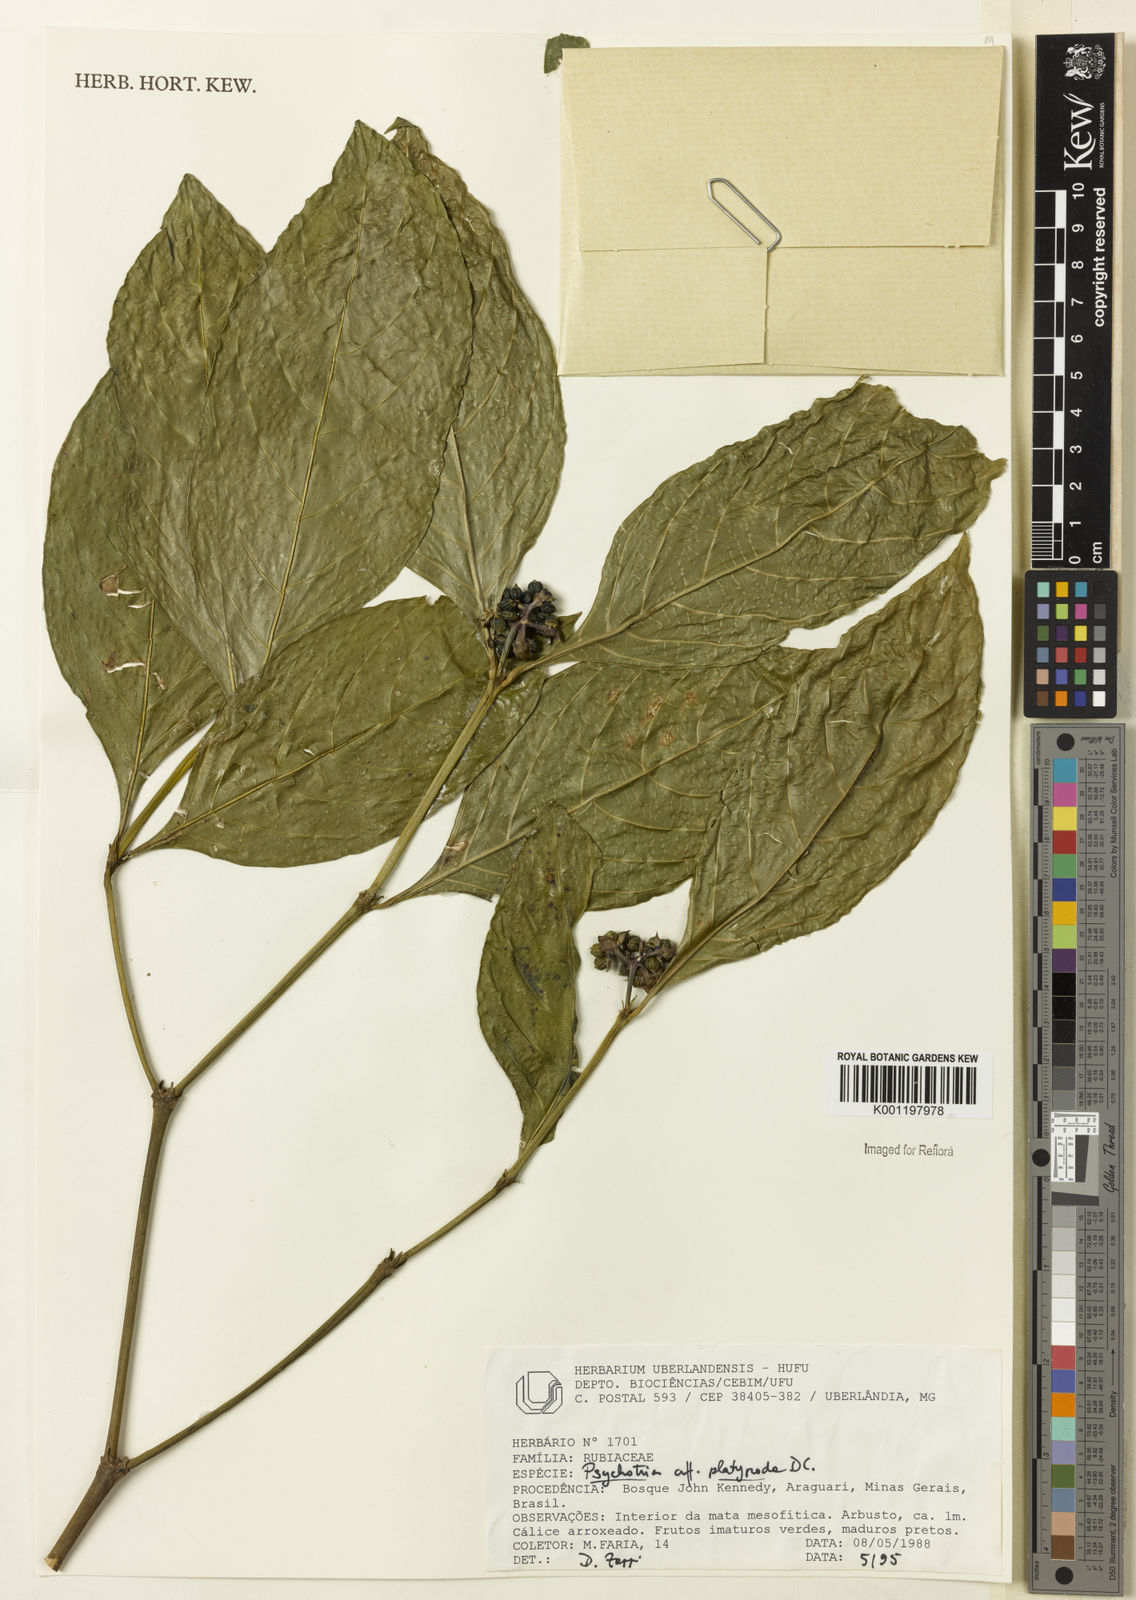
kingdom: Plantae
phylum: Tracheophyta
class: Magnoliopsida
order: Gentianales
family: Rubiaceae
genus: Palicourea
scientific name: Palicourea dichotoma
